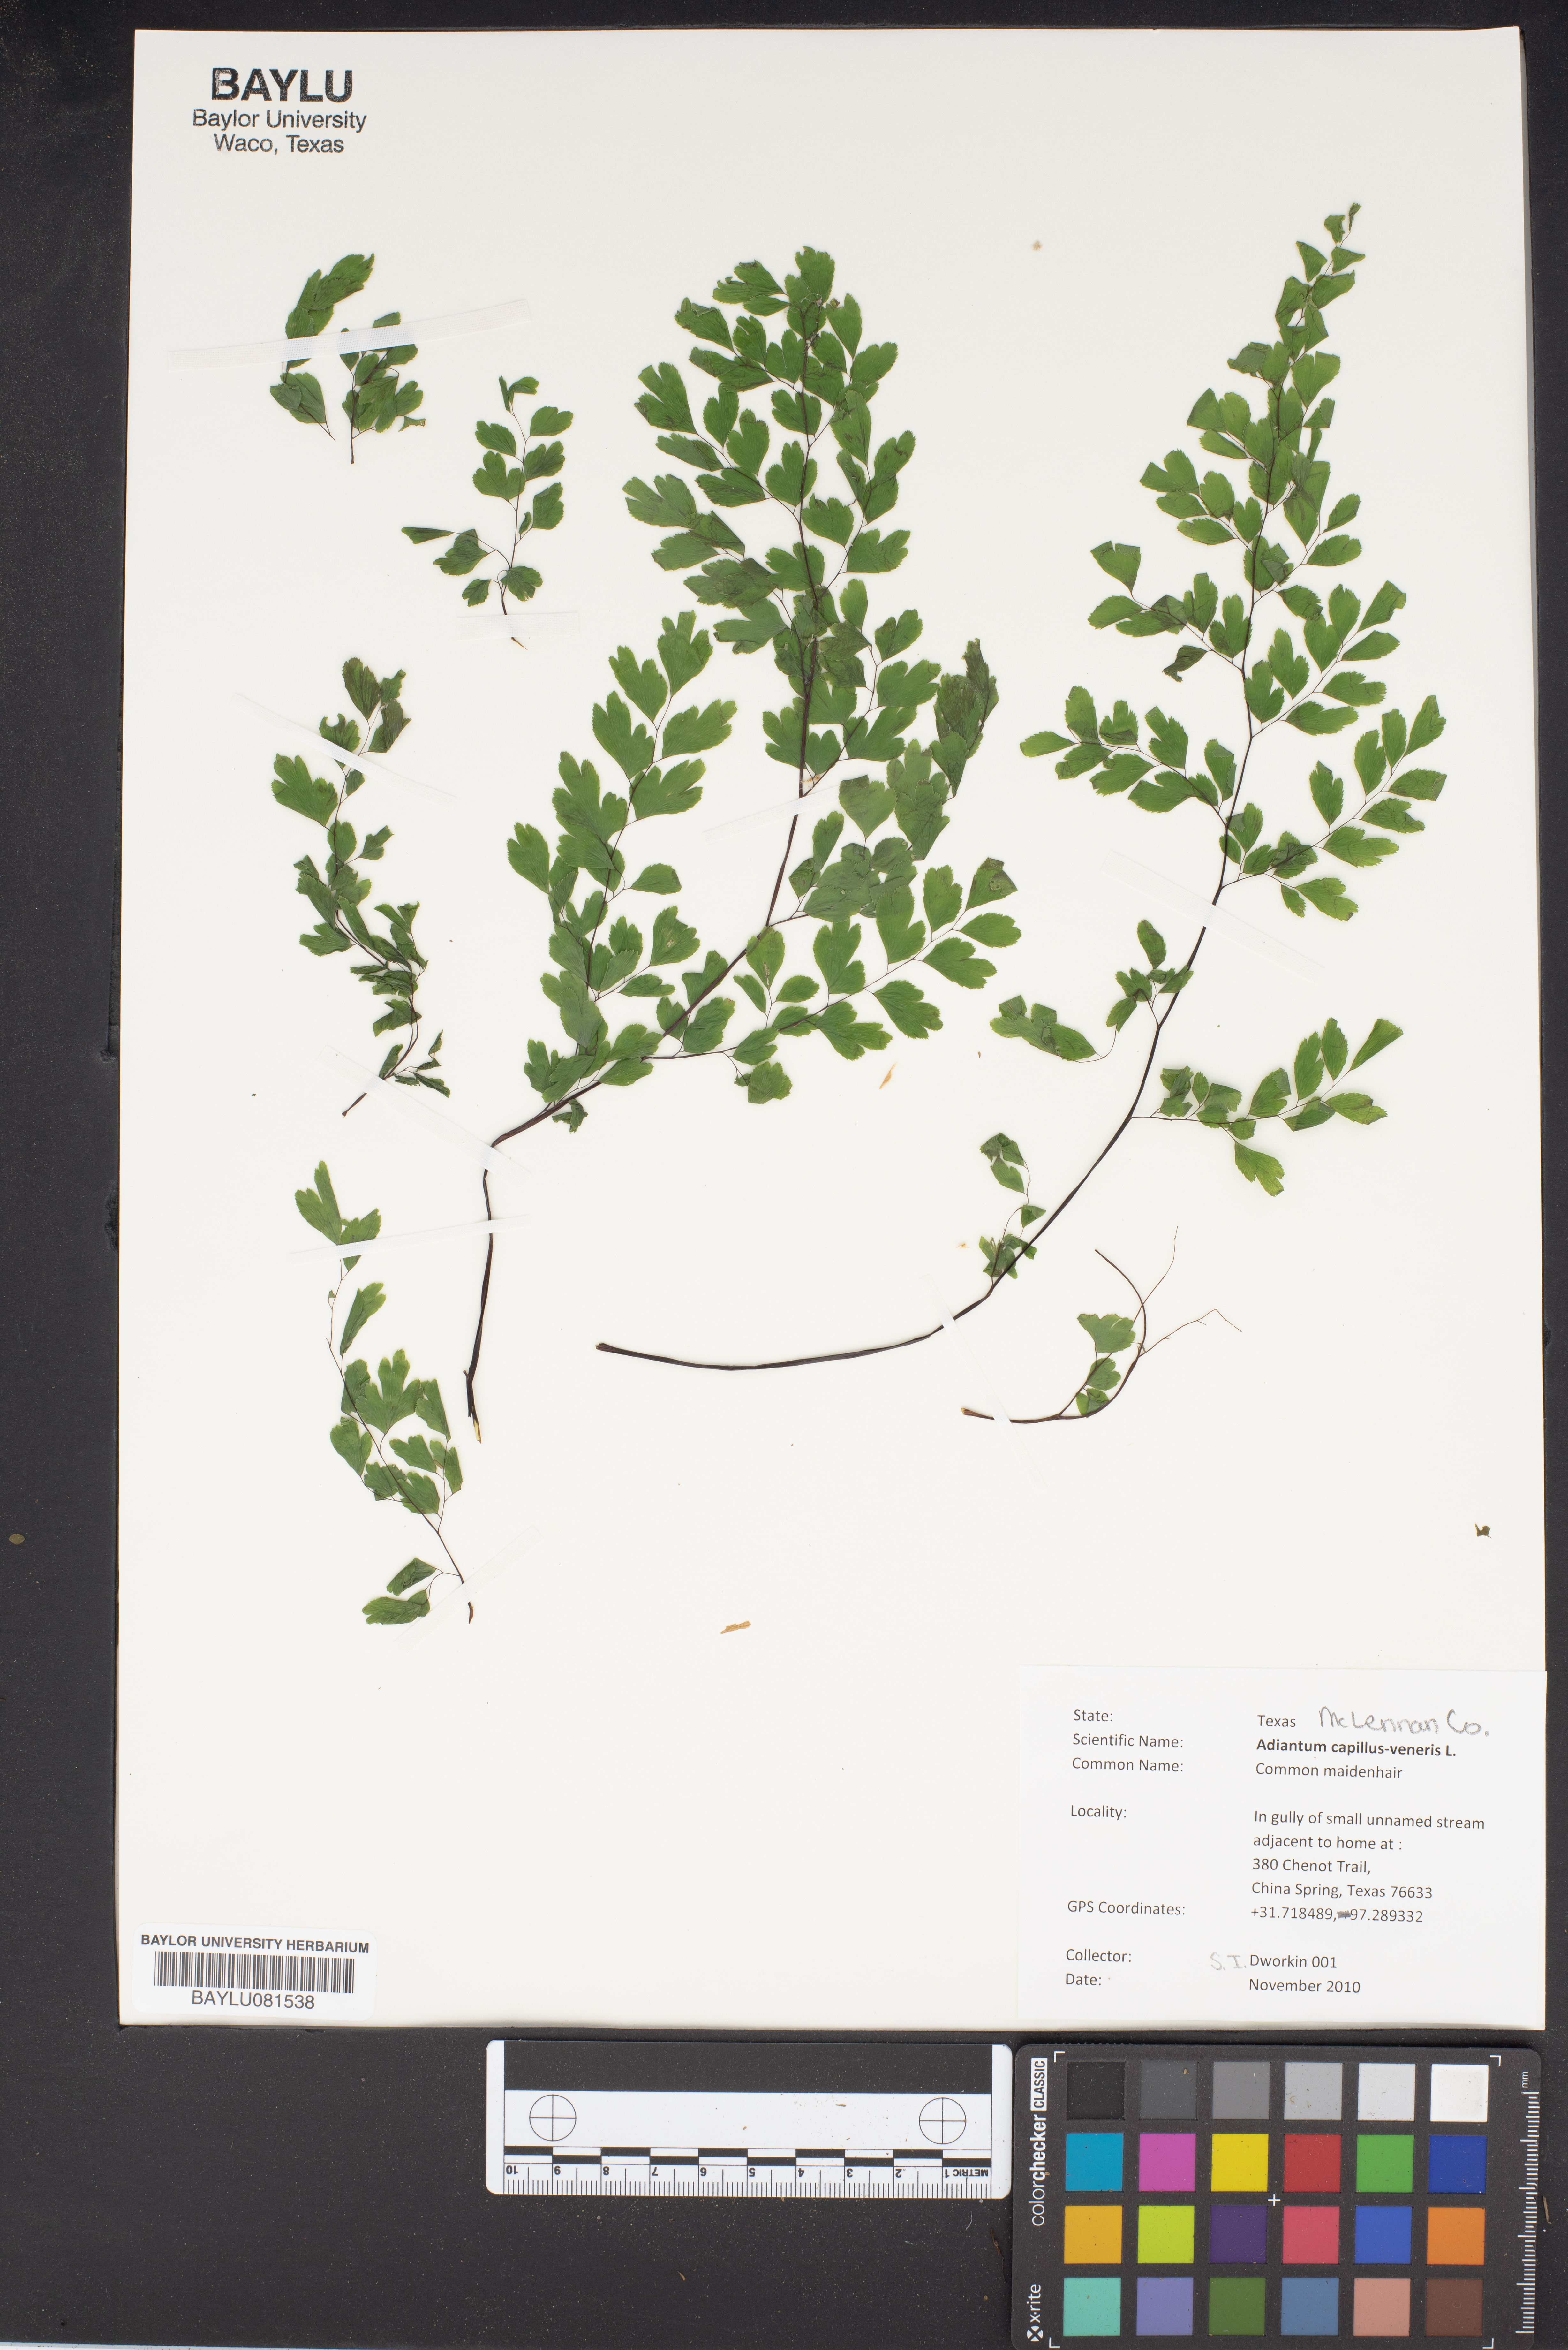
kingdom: Plantae
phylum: Tracheophyta
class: Polypodiopsida
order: Polypodiales
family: Pteridaceae
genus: Adiantum
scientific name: Adiantum capillus-veneris
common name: Maidenhair fern
